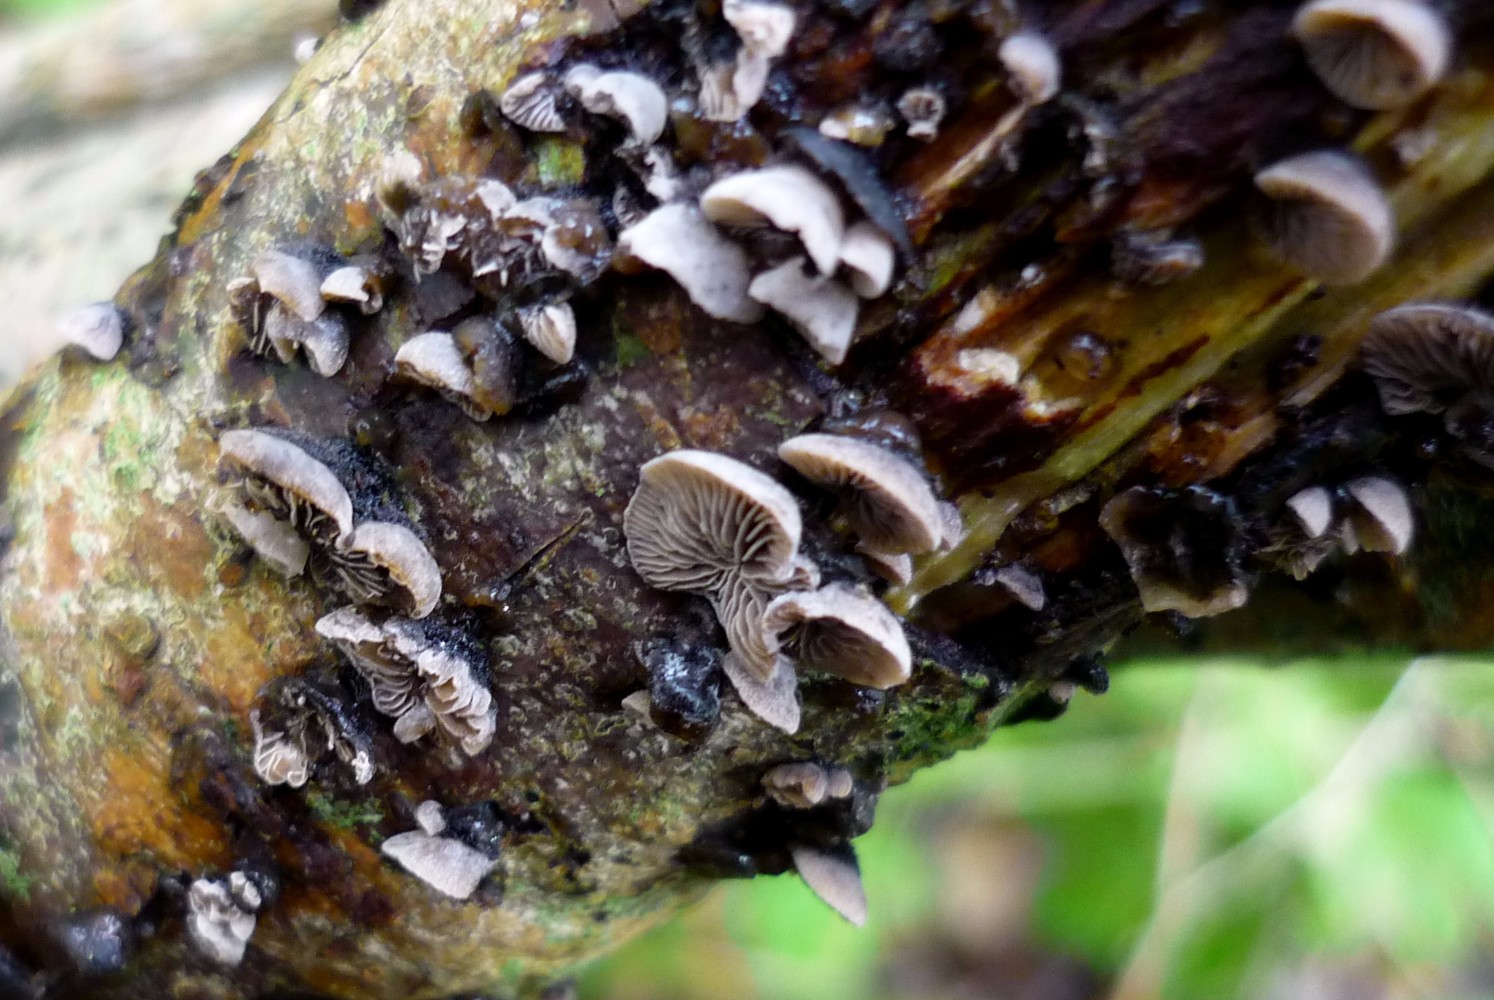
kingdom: Fungi
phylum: Basidiomycota
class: Agaricomycetes
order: Agaricales
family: Pleurotaceae
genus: Resupinatus
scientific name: Resupinatus trichotis
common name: mørkfiltet barkhat
